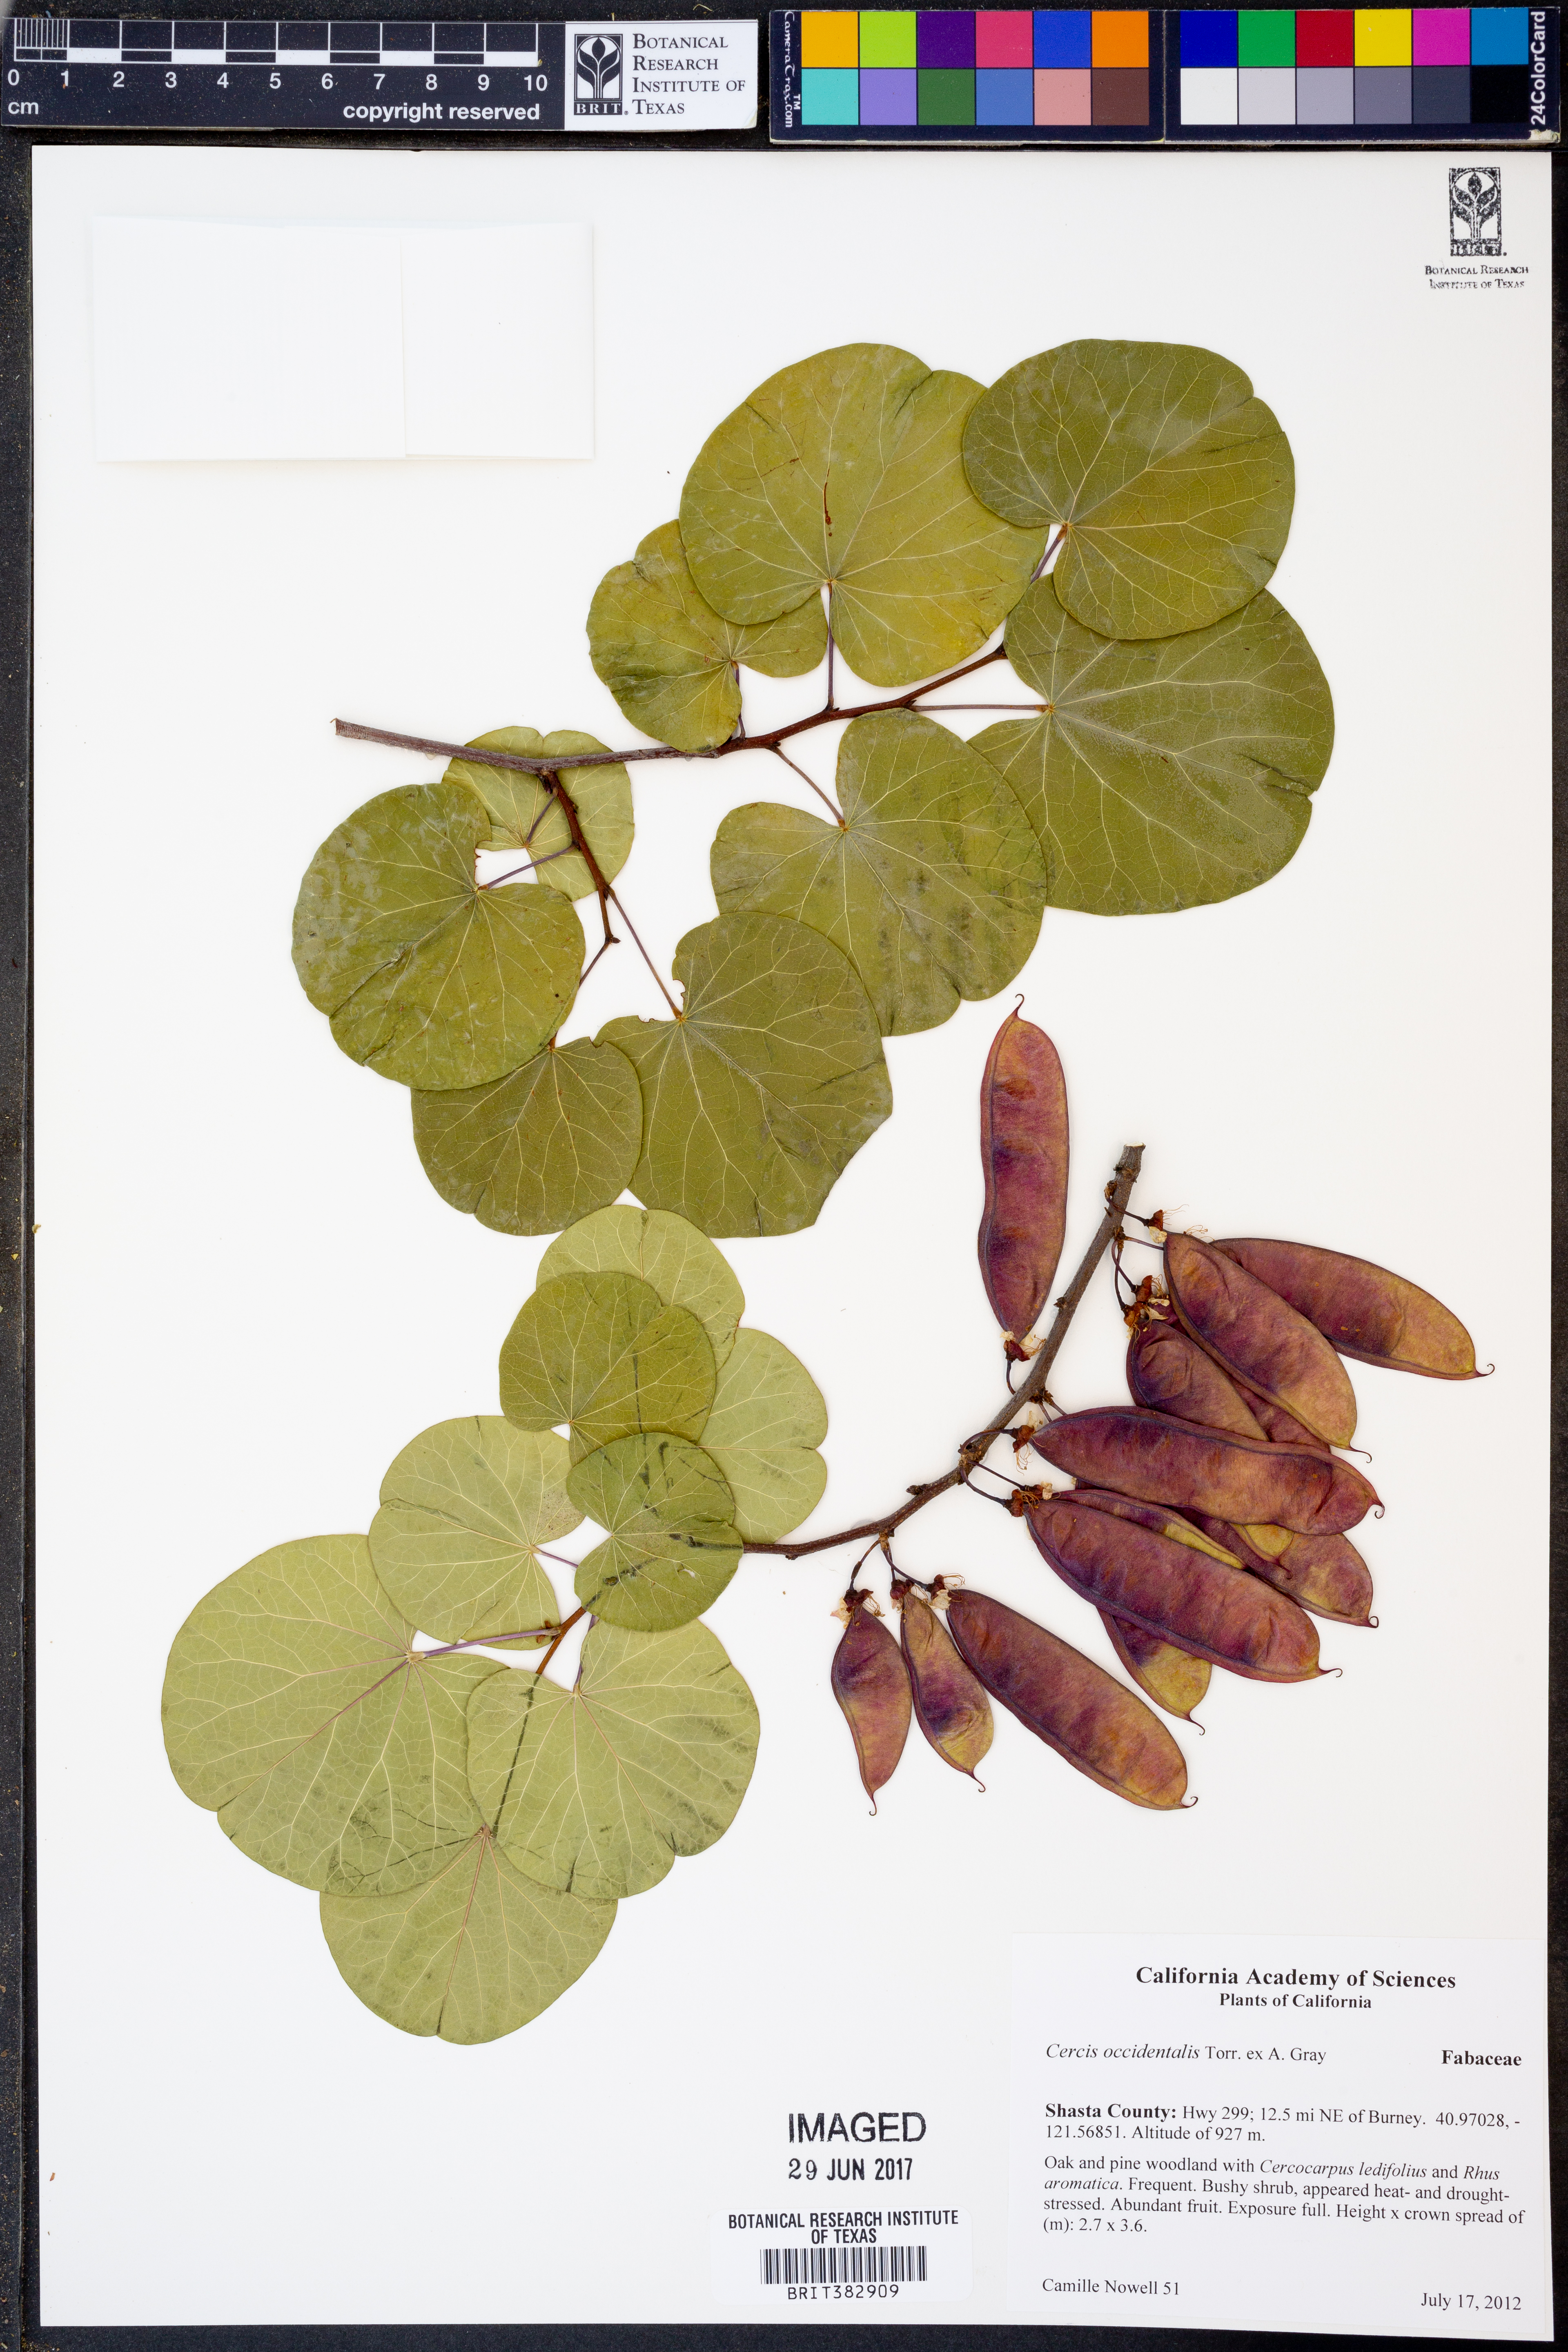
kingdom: Plantae
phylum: Tracheophyta
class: Magnoliopsida
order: Fabales
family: Fabaceae
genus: Cercis
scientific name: Cercis occidentalis
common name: California redbud
